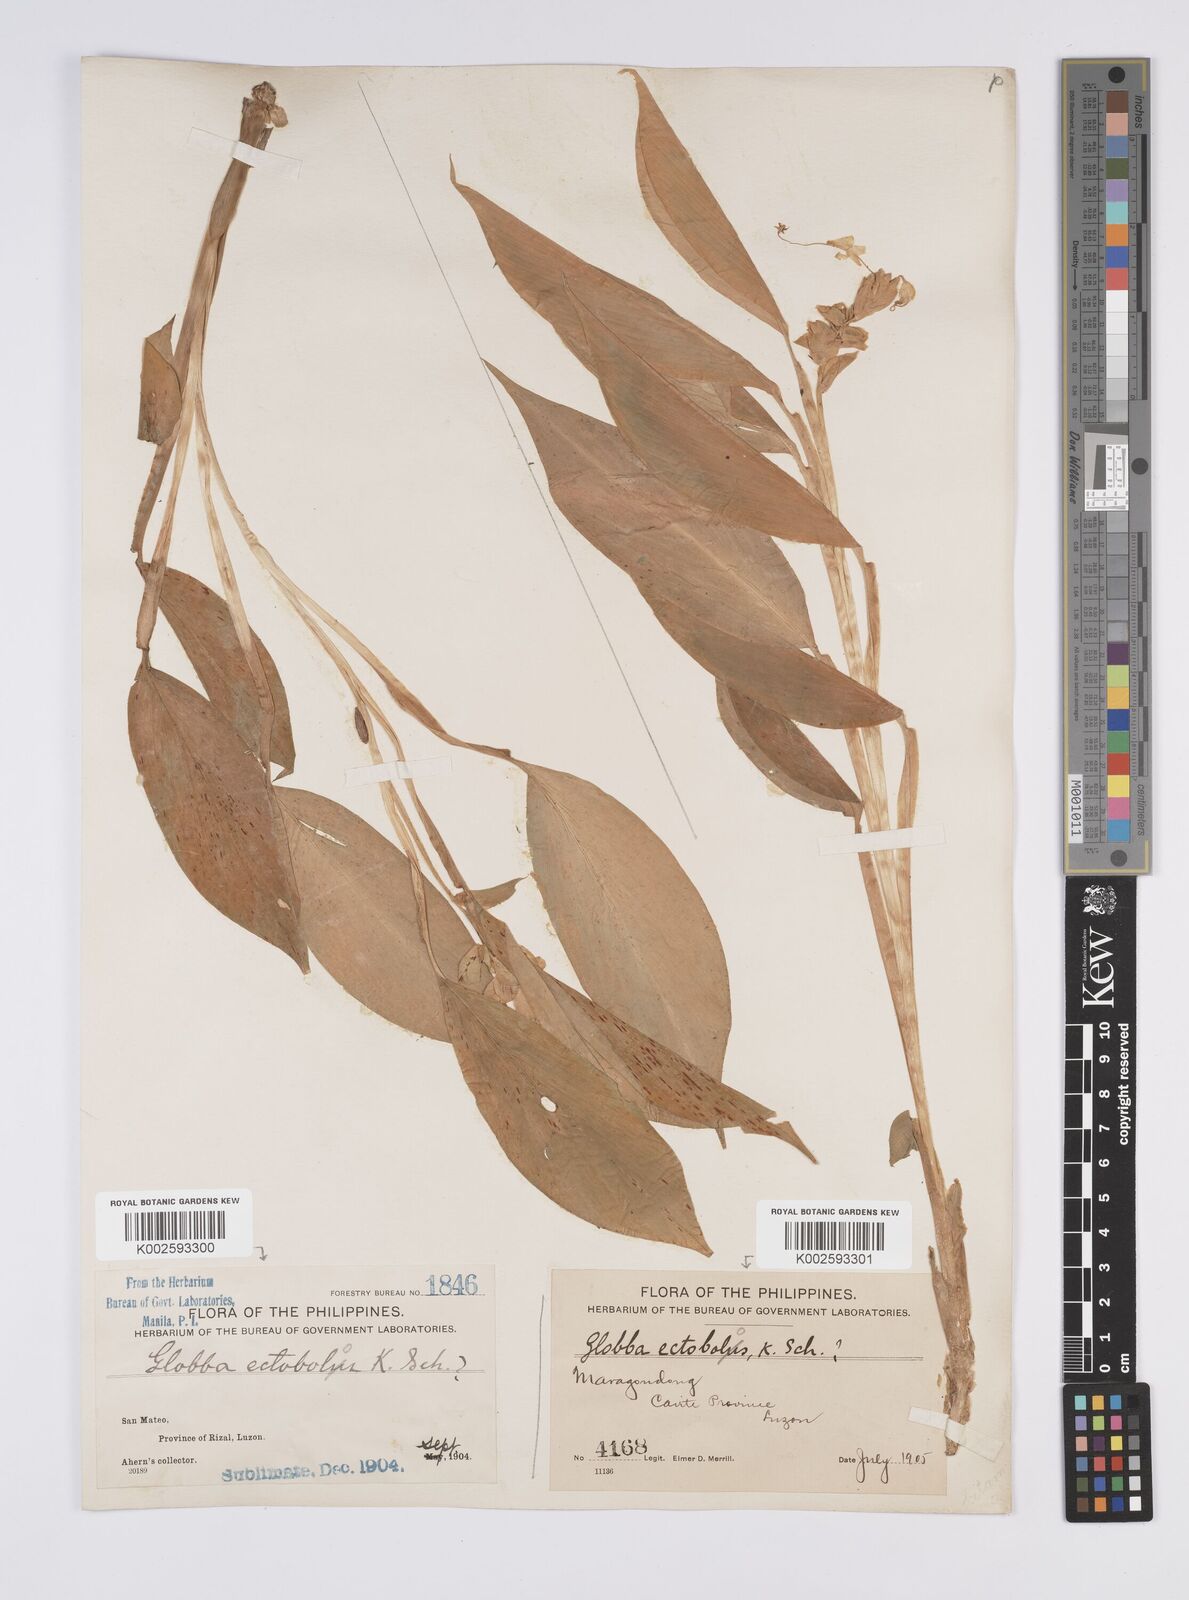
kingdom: Plantae
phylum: Tracheophyta
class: Liliopsida
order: Zingiberales
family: Zingiberaceae
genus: Globba
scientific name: Globba marantina
